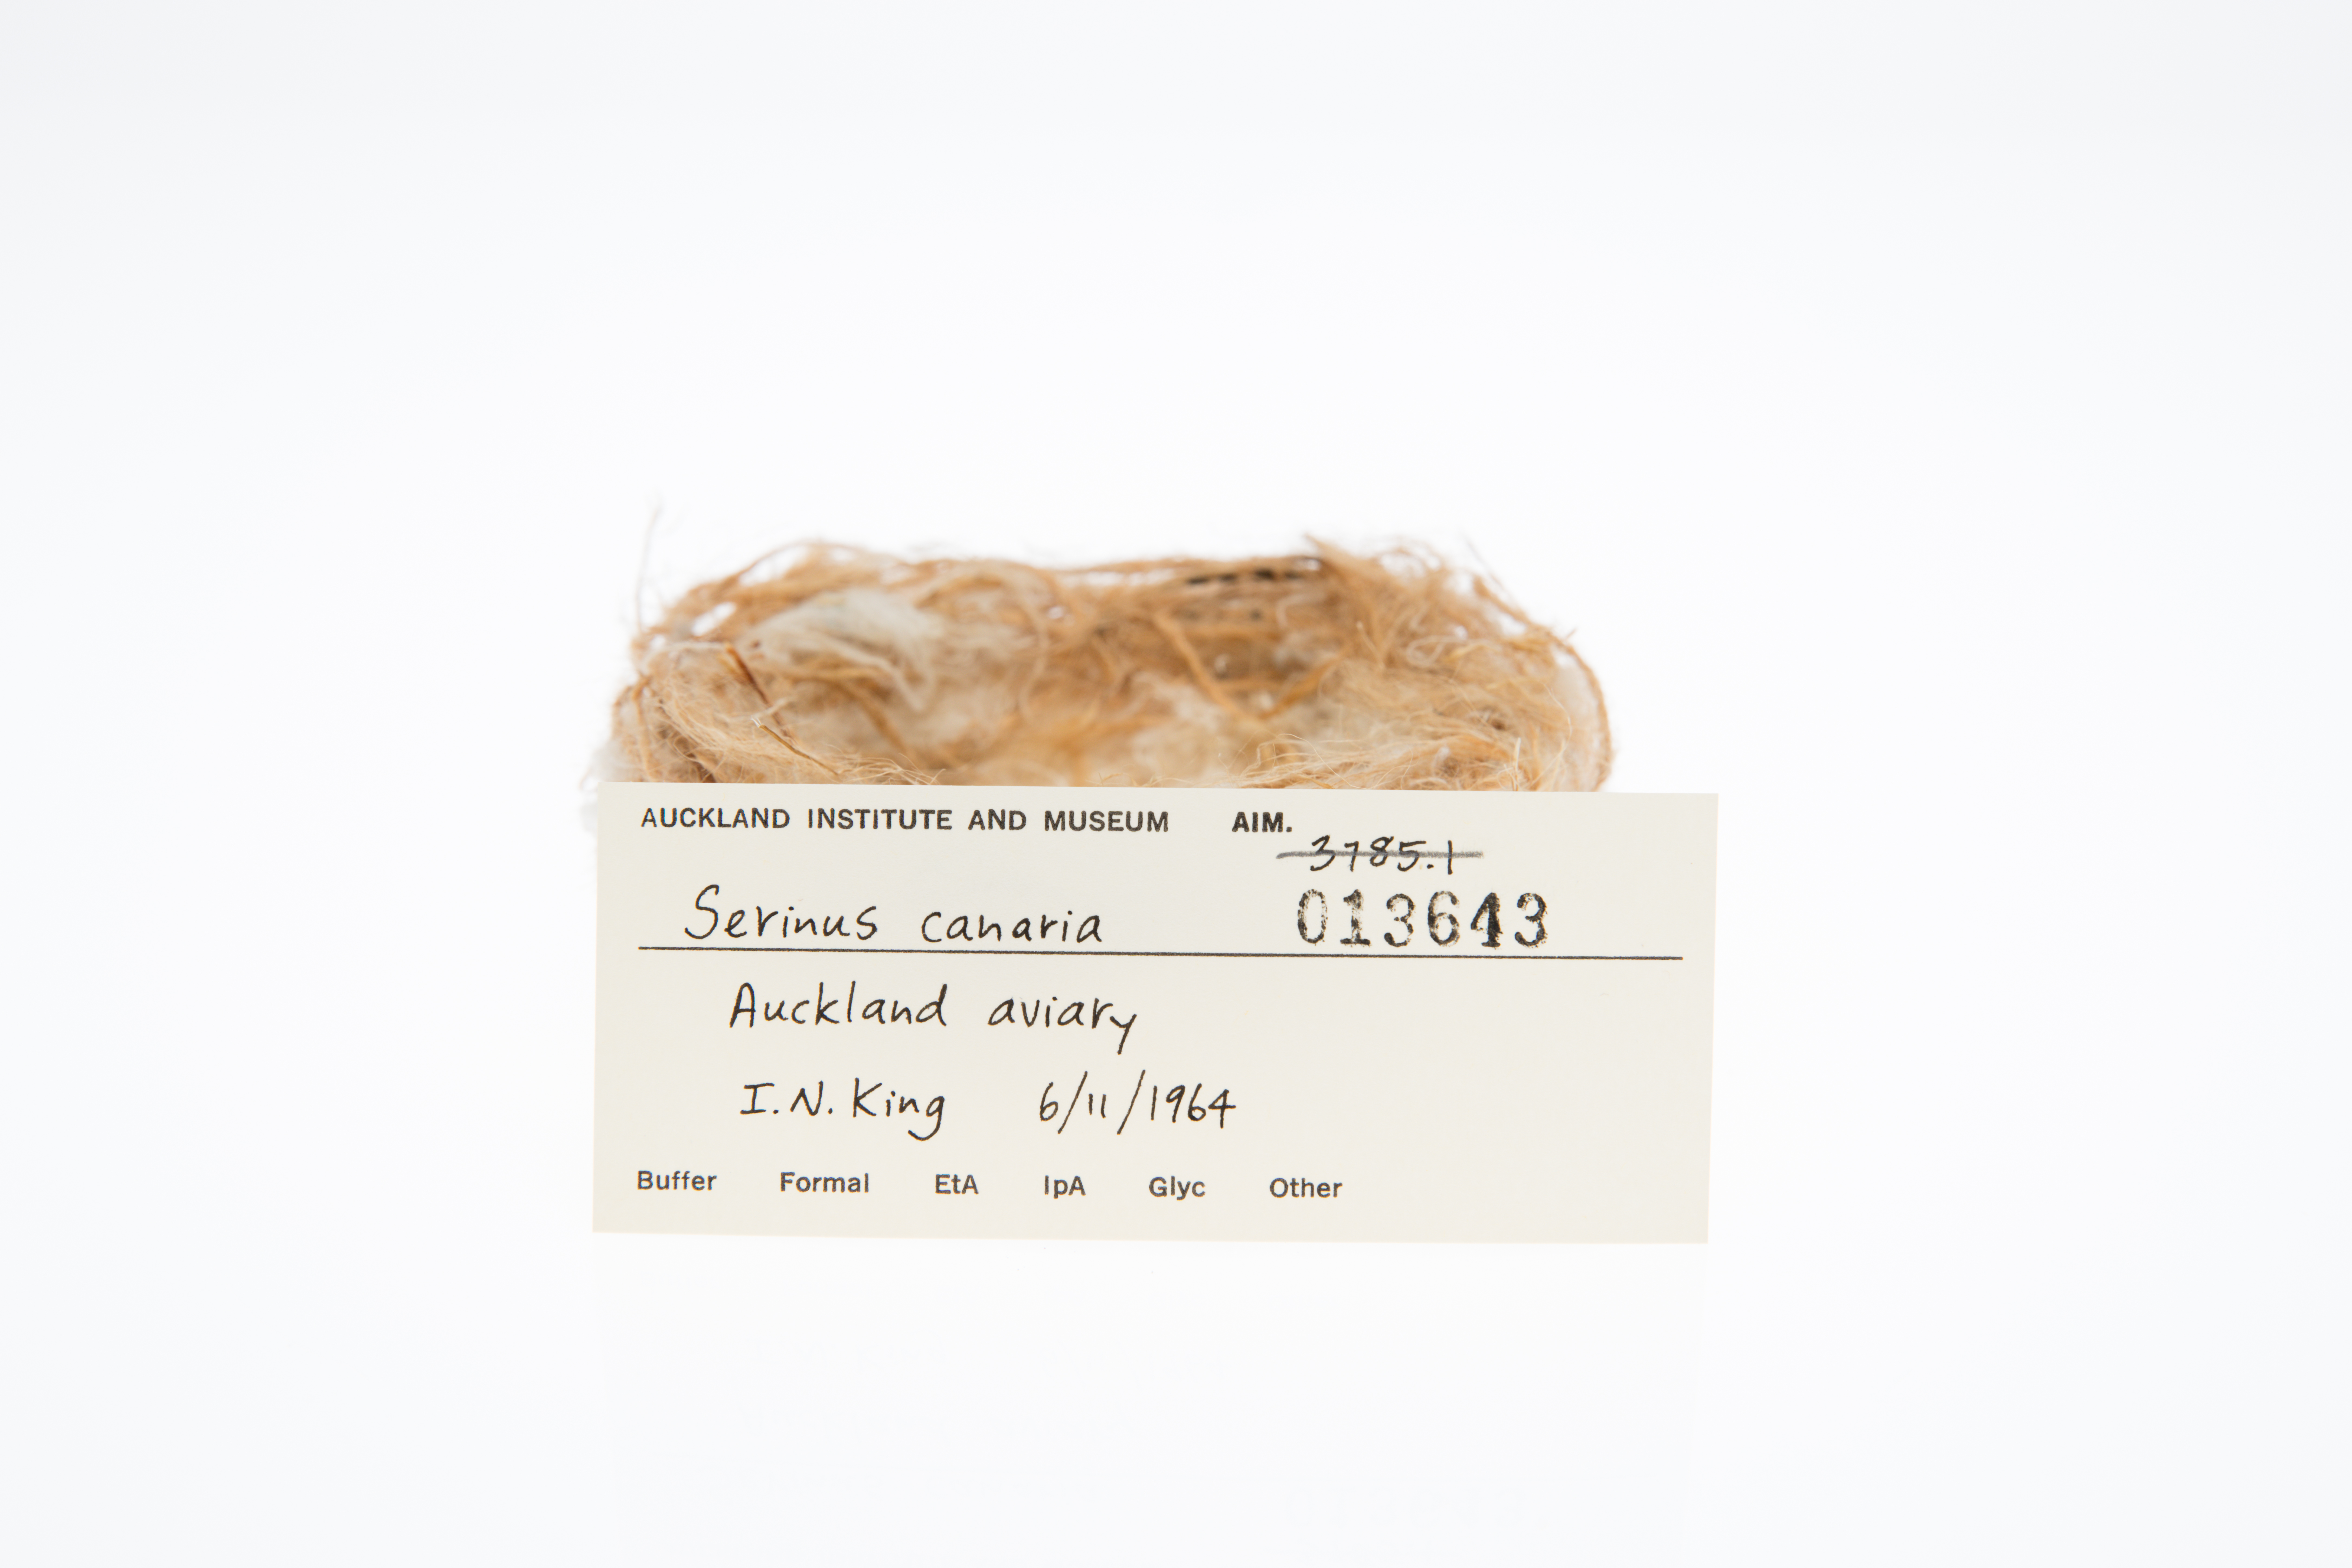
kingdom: Animalia
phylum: Chordata
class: Aves
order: Passeriformes
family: Fringillidae
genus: Serinus
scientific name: Serinus canaria
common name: Atlantic canary
